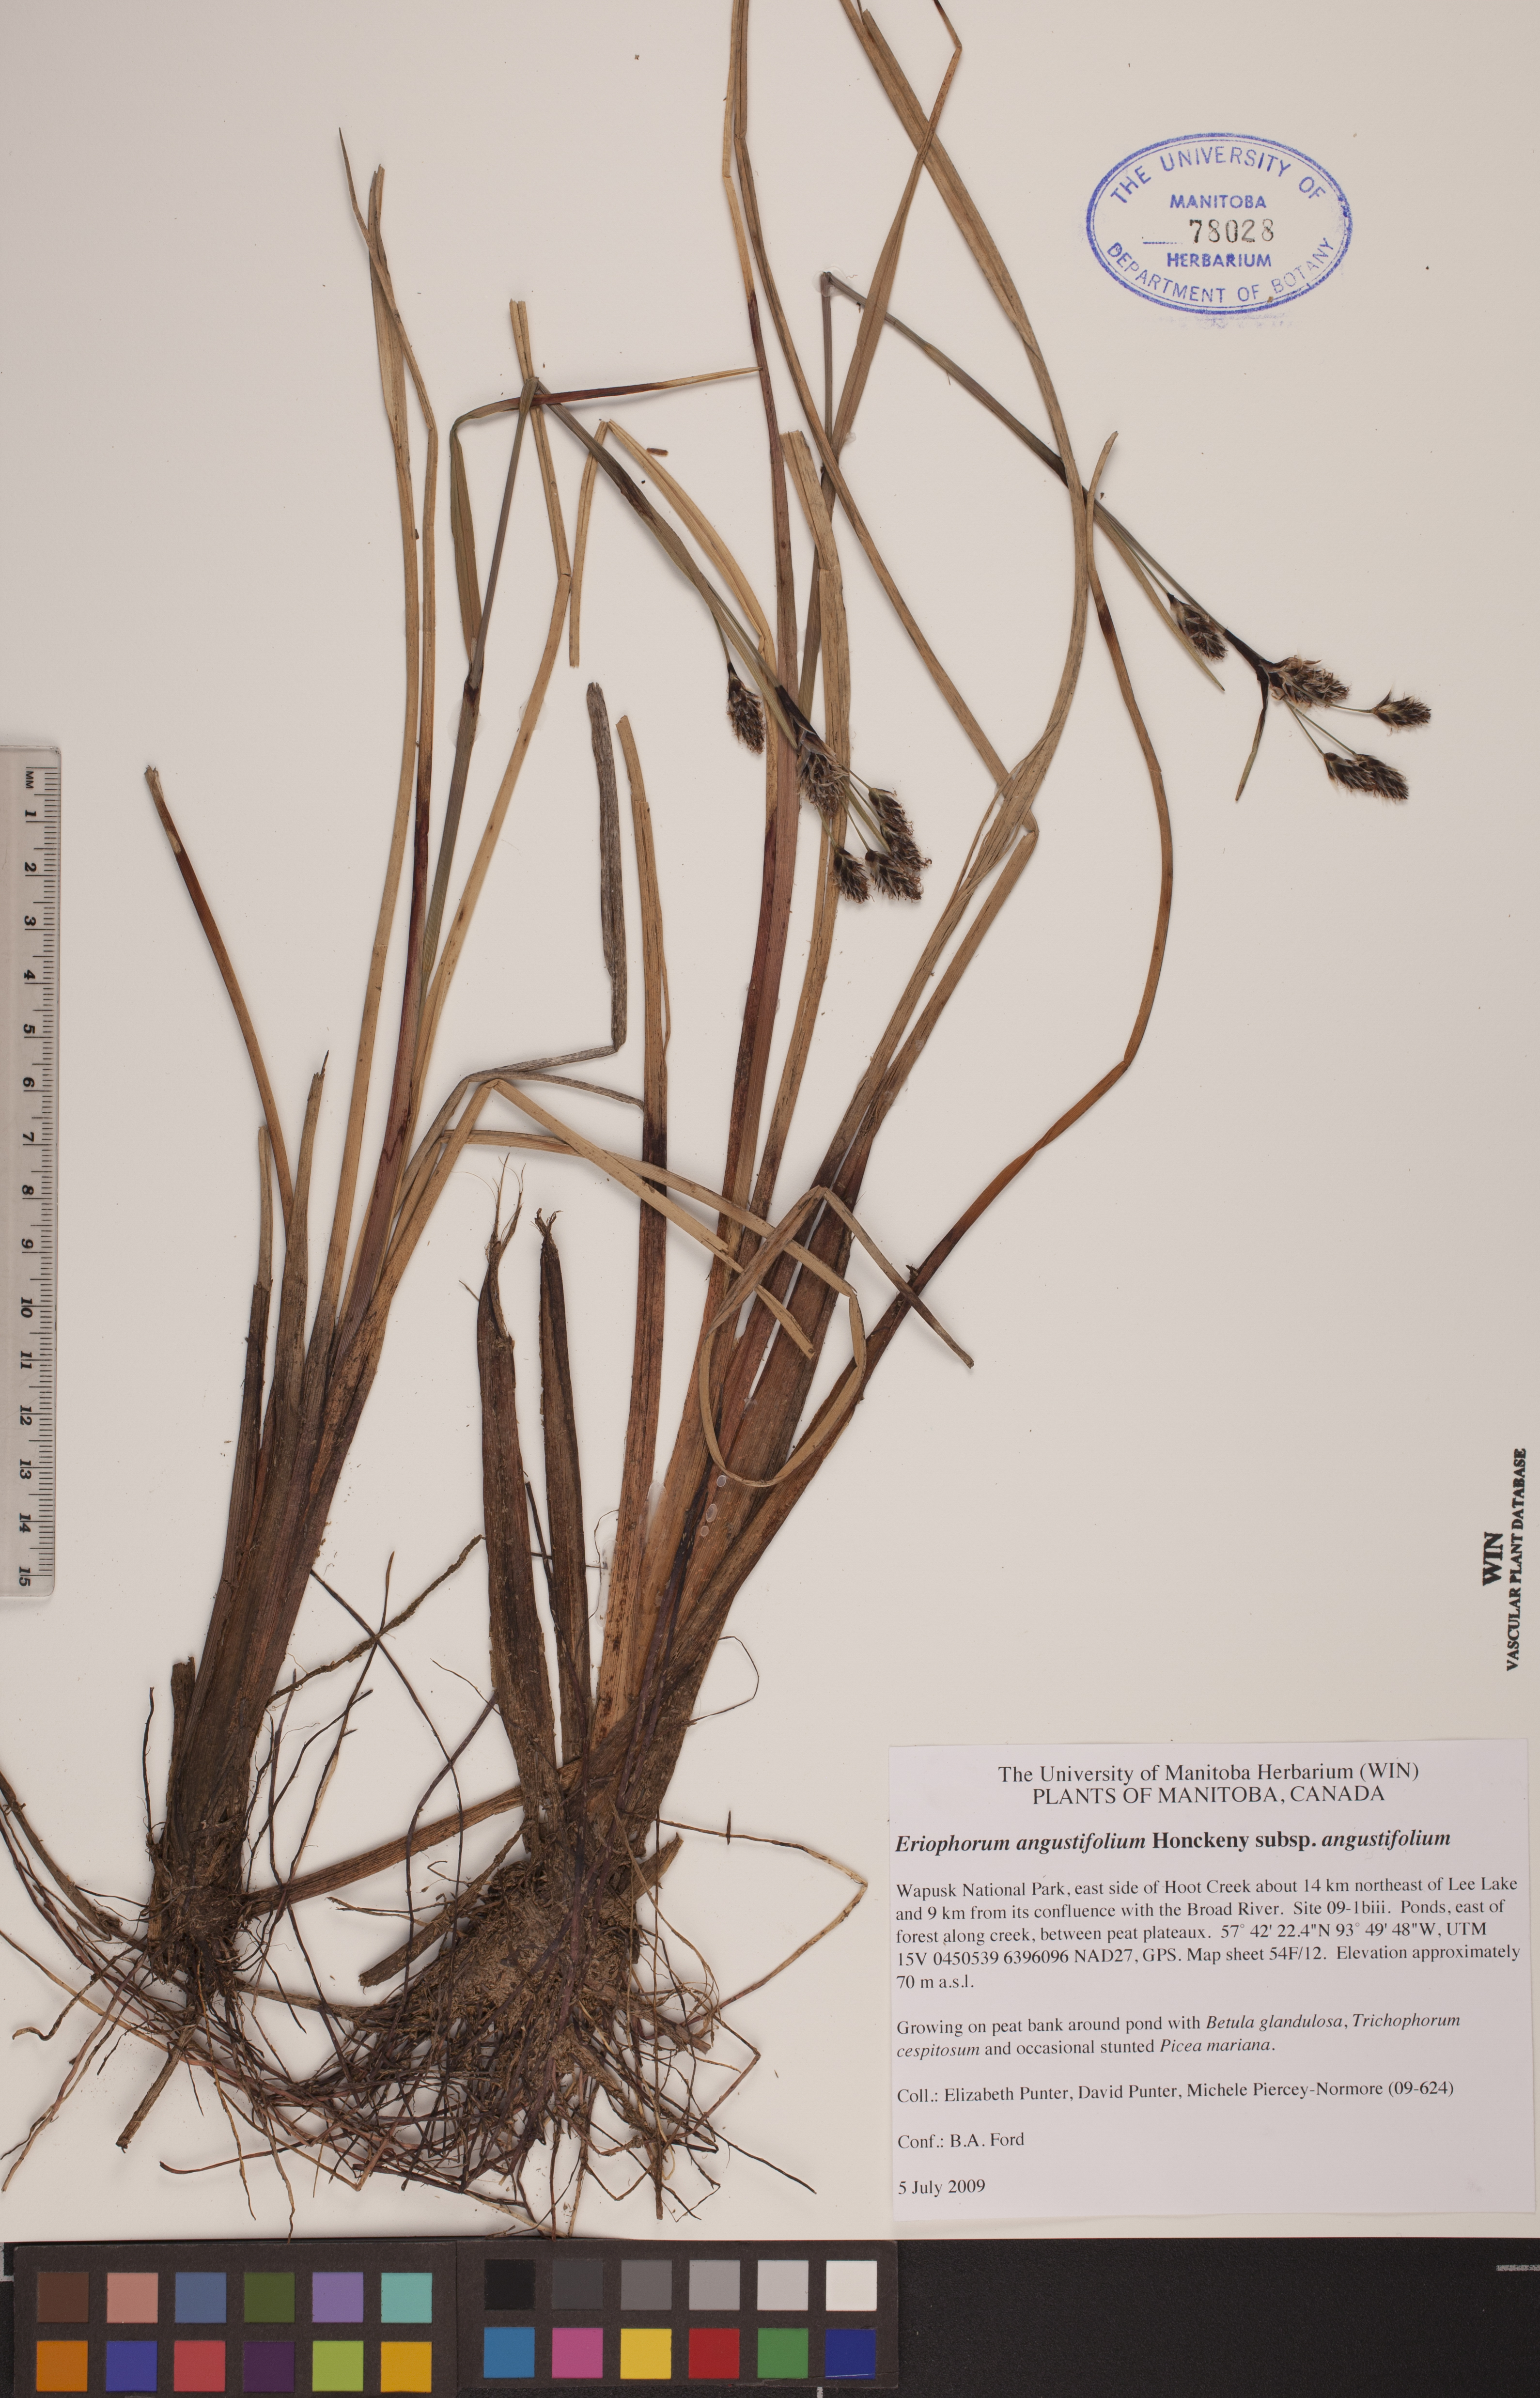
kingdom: Plantae
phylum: Tracheophyta
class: Liliopsida
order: Poales
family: Cyperaceae
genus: Eriophorum
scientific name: Eriophorum angustifolium
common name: Common cottongrass
